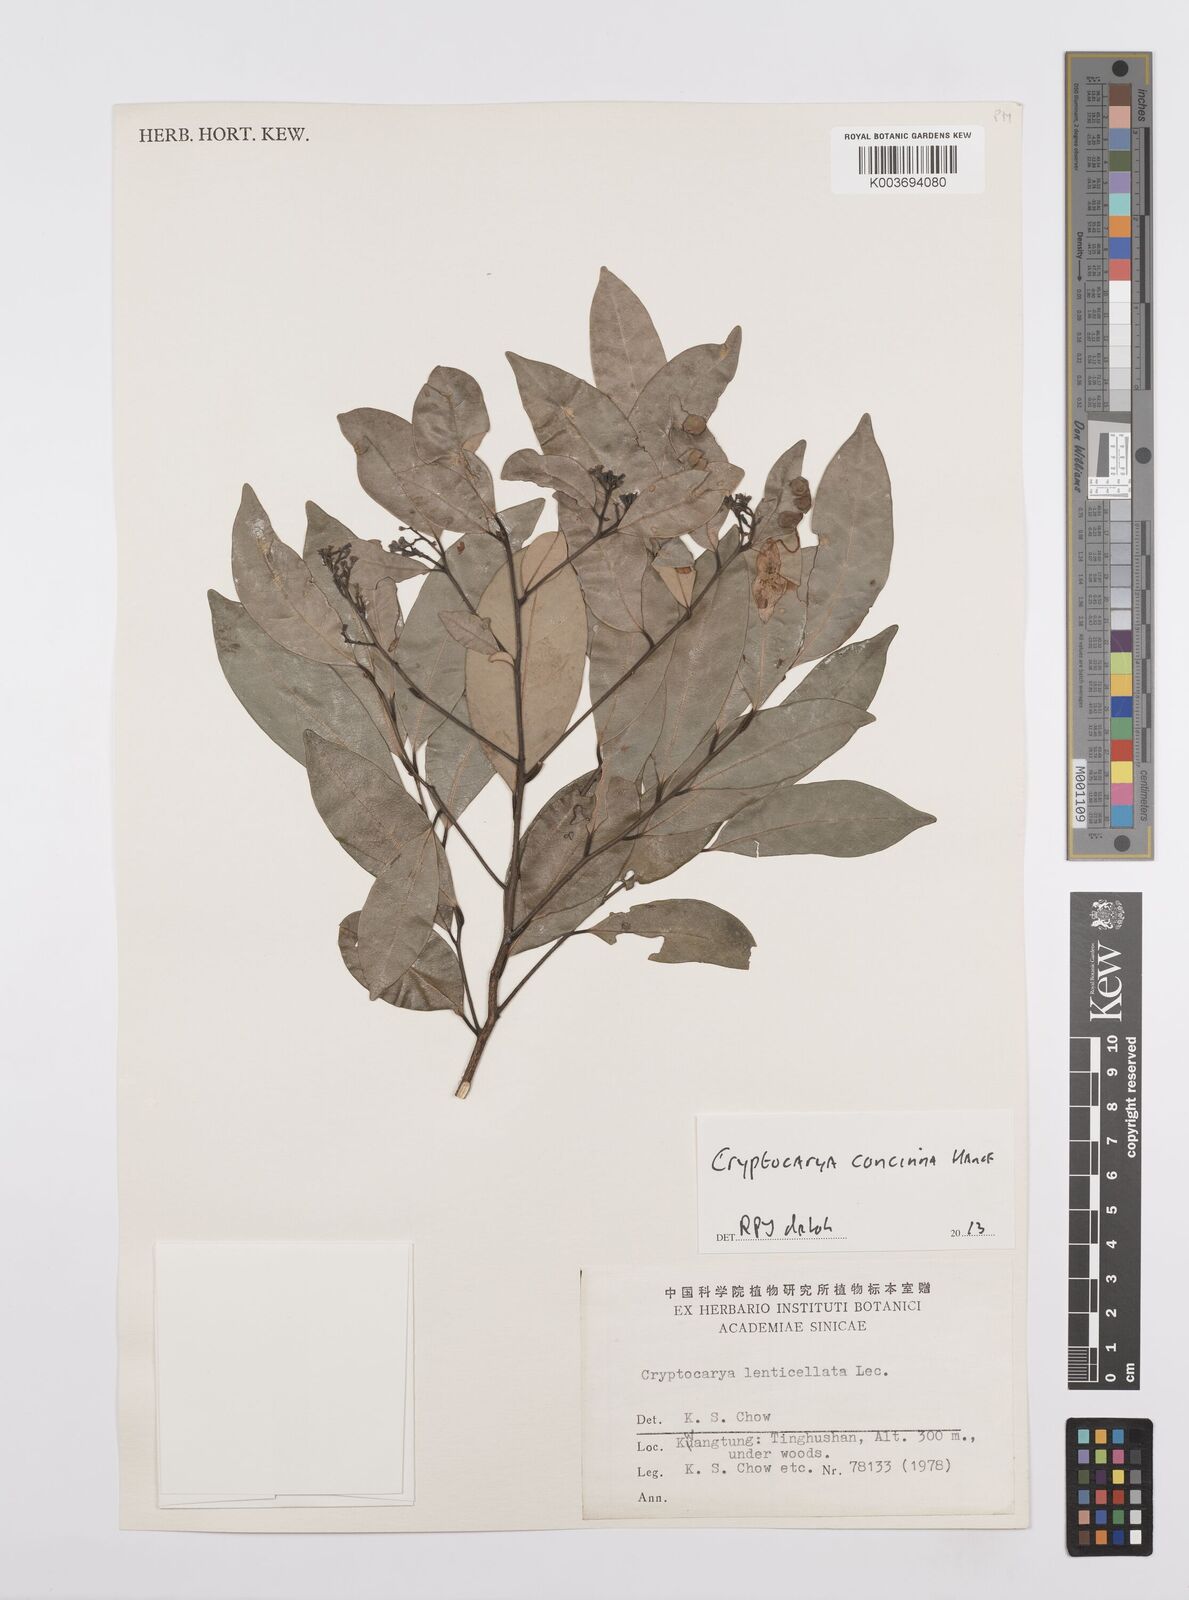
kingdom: Plantae
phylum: Tracheophyta
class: Magnoliopsida
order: Laurales
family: Lauraceae
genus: Cryptocarya
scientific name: Cryptocarya concinna
